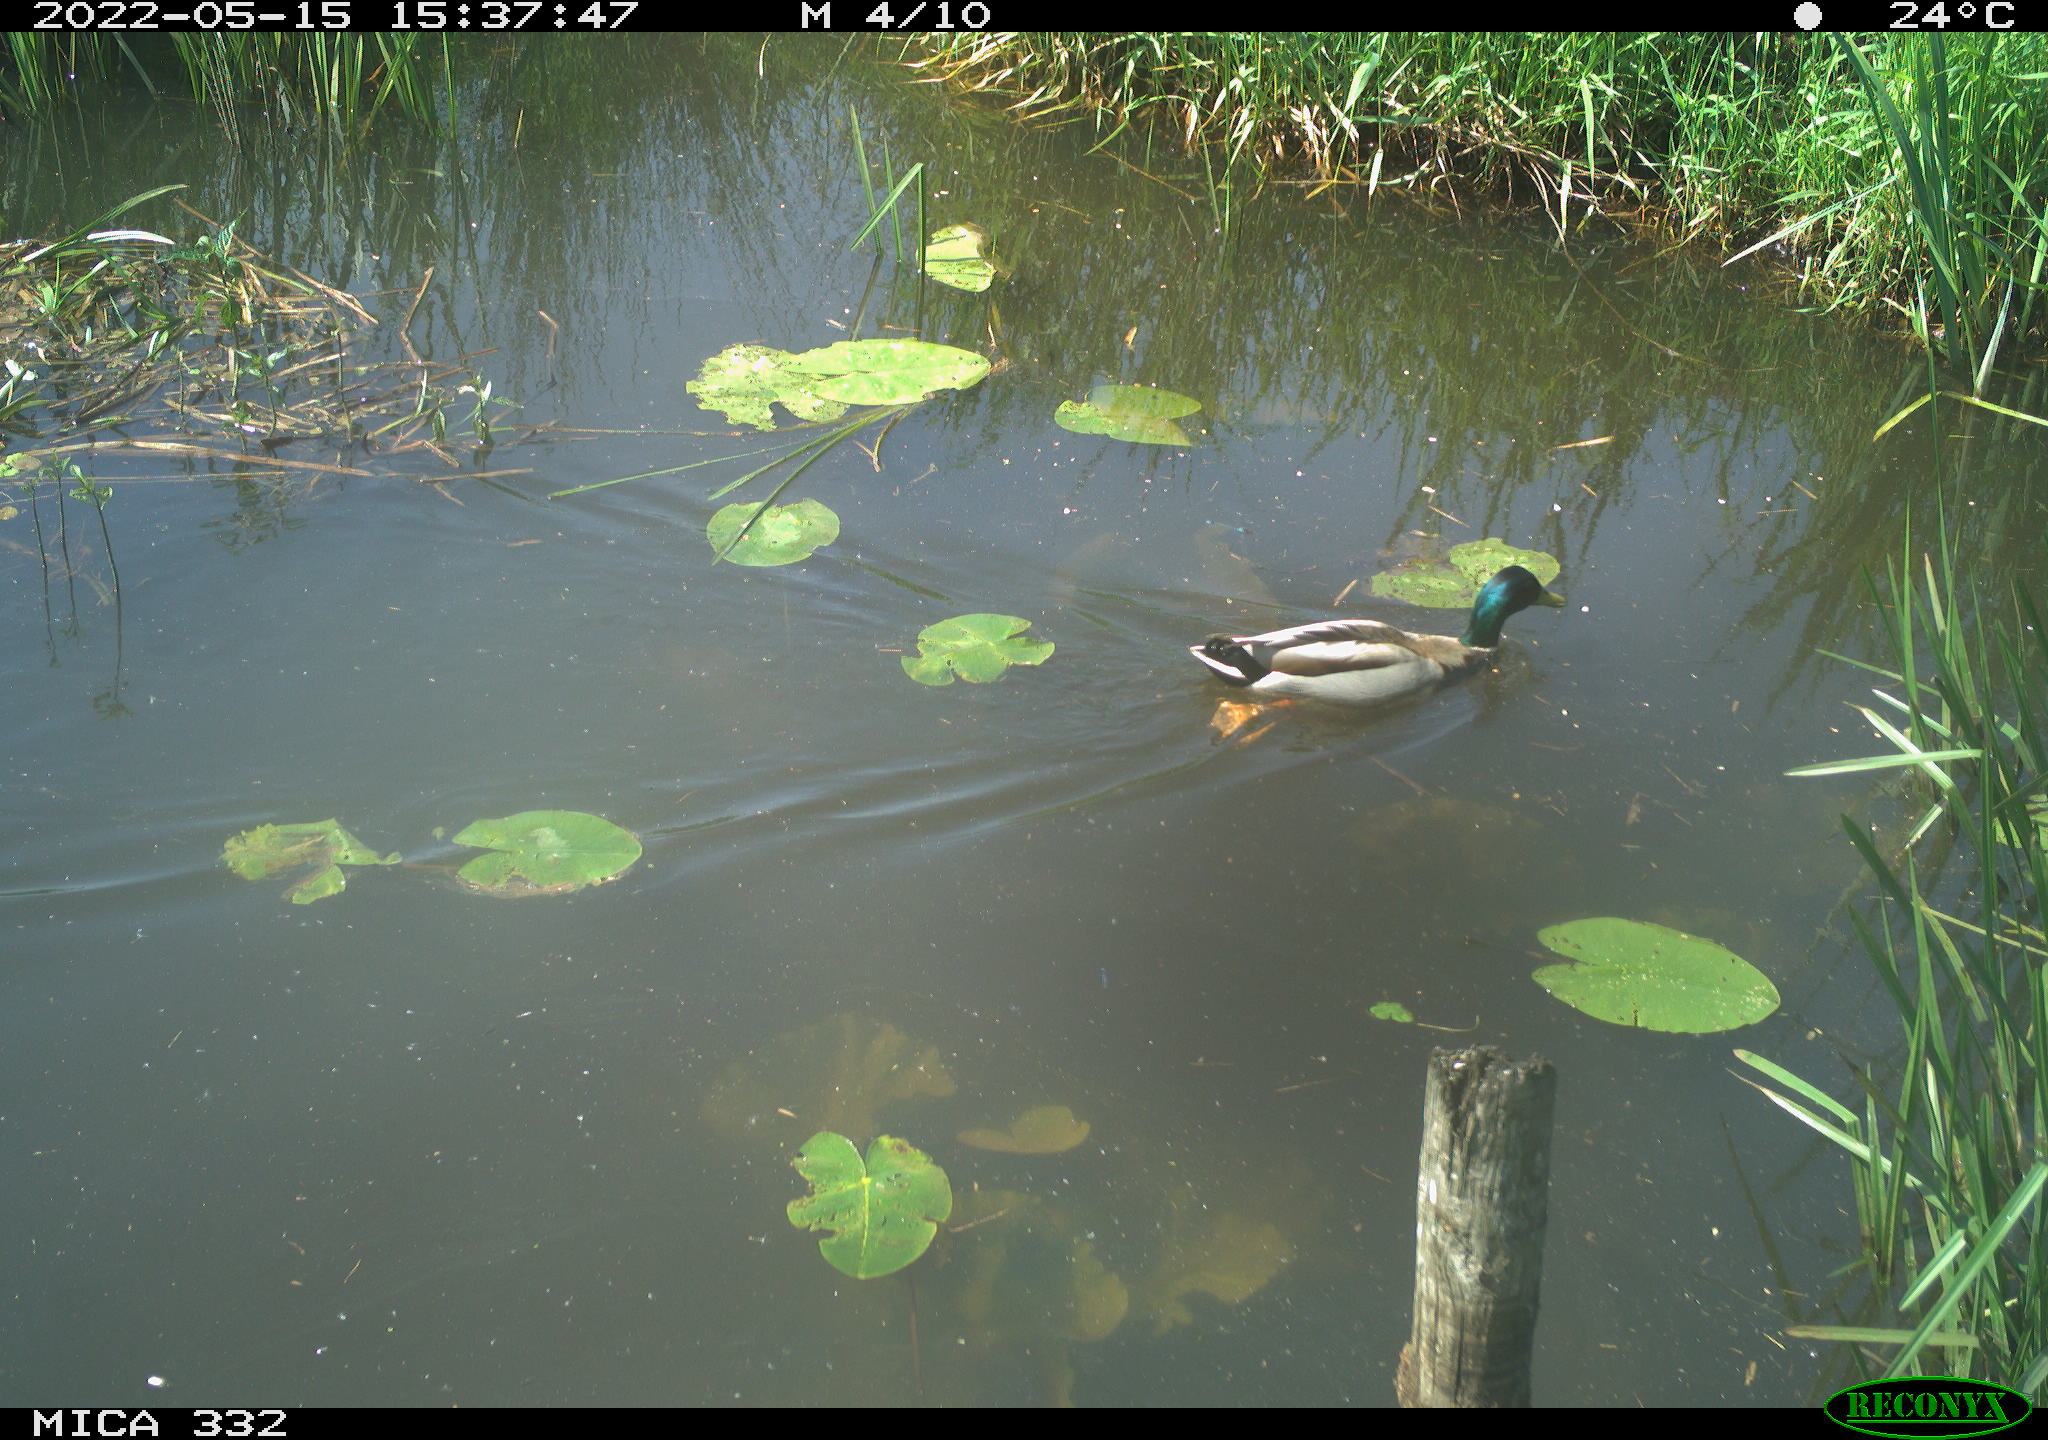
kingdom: Animalia
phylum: Chordata
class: Aves
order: Anseriformes
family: Anatidae
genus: Anas
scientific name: Anas platyrhynchos
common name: Mallard
